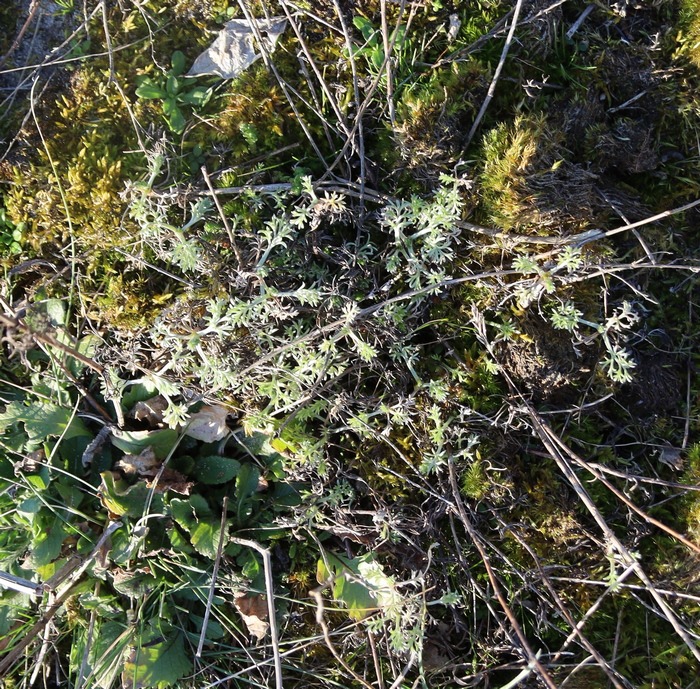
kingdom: Plantae
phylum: Tracheophyta
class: Magnoliopsida
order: Asterales
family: Asteraceae
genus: Artemisia
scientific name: Artemisia campestris
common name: Mark-bynke
